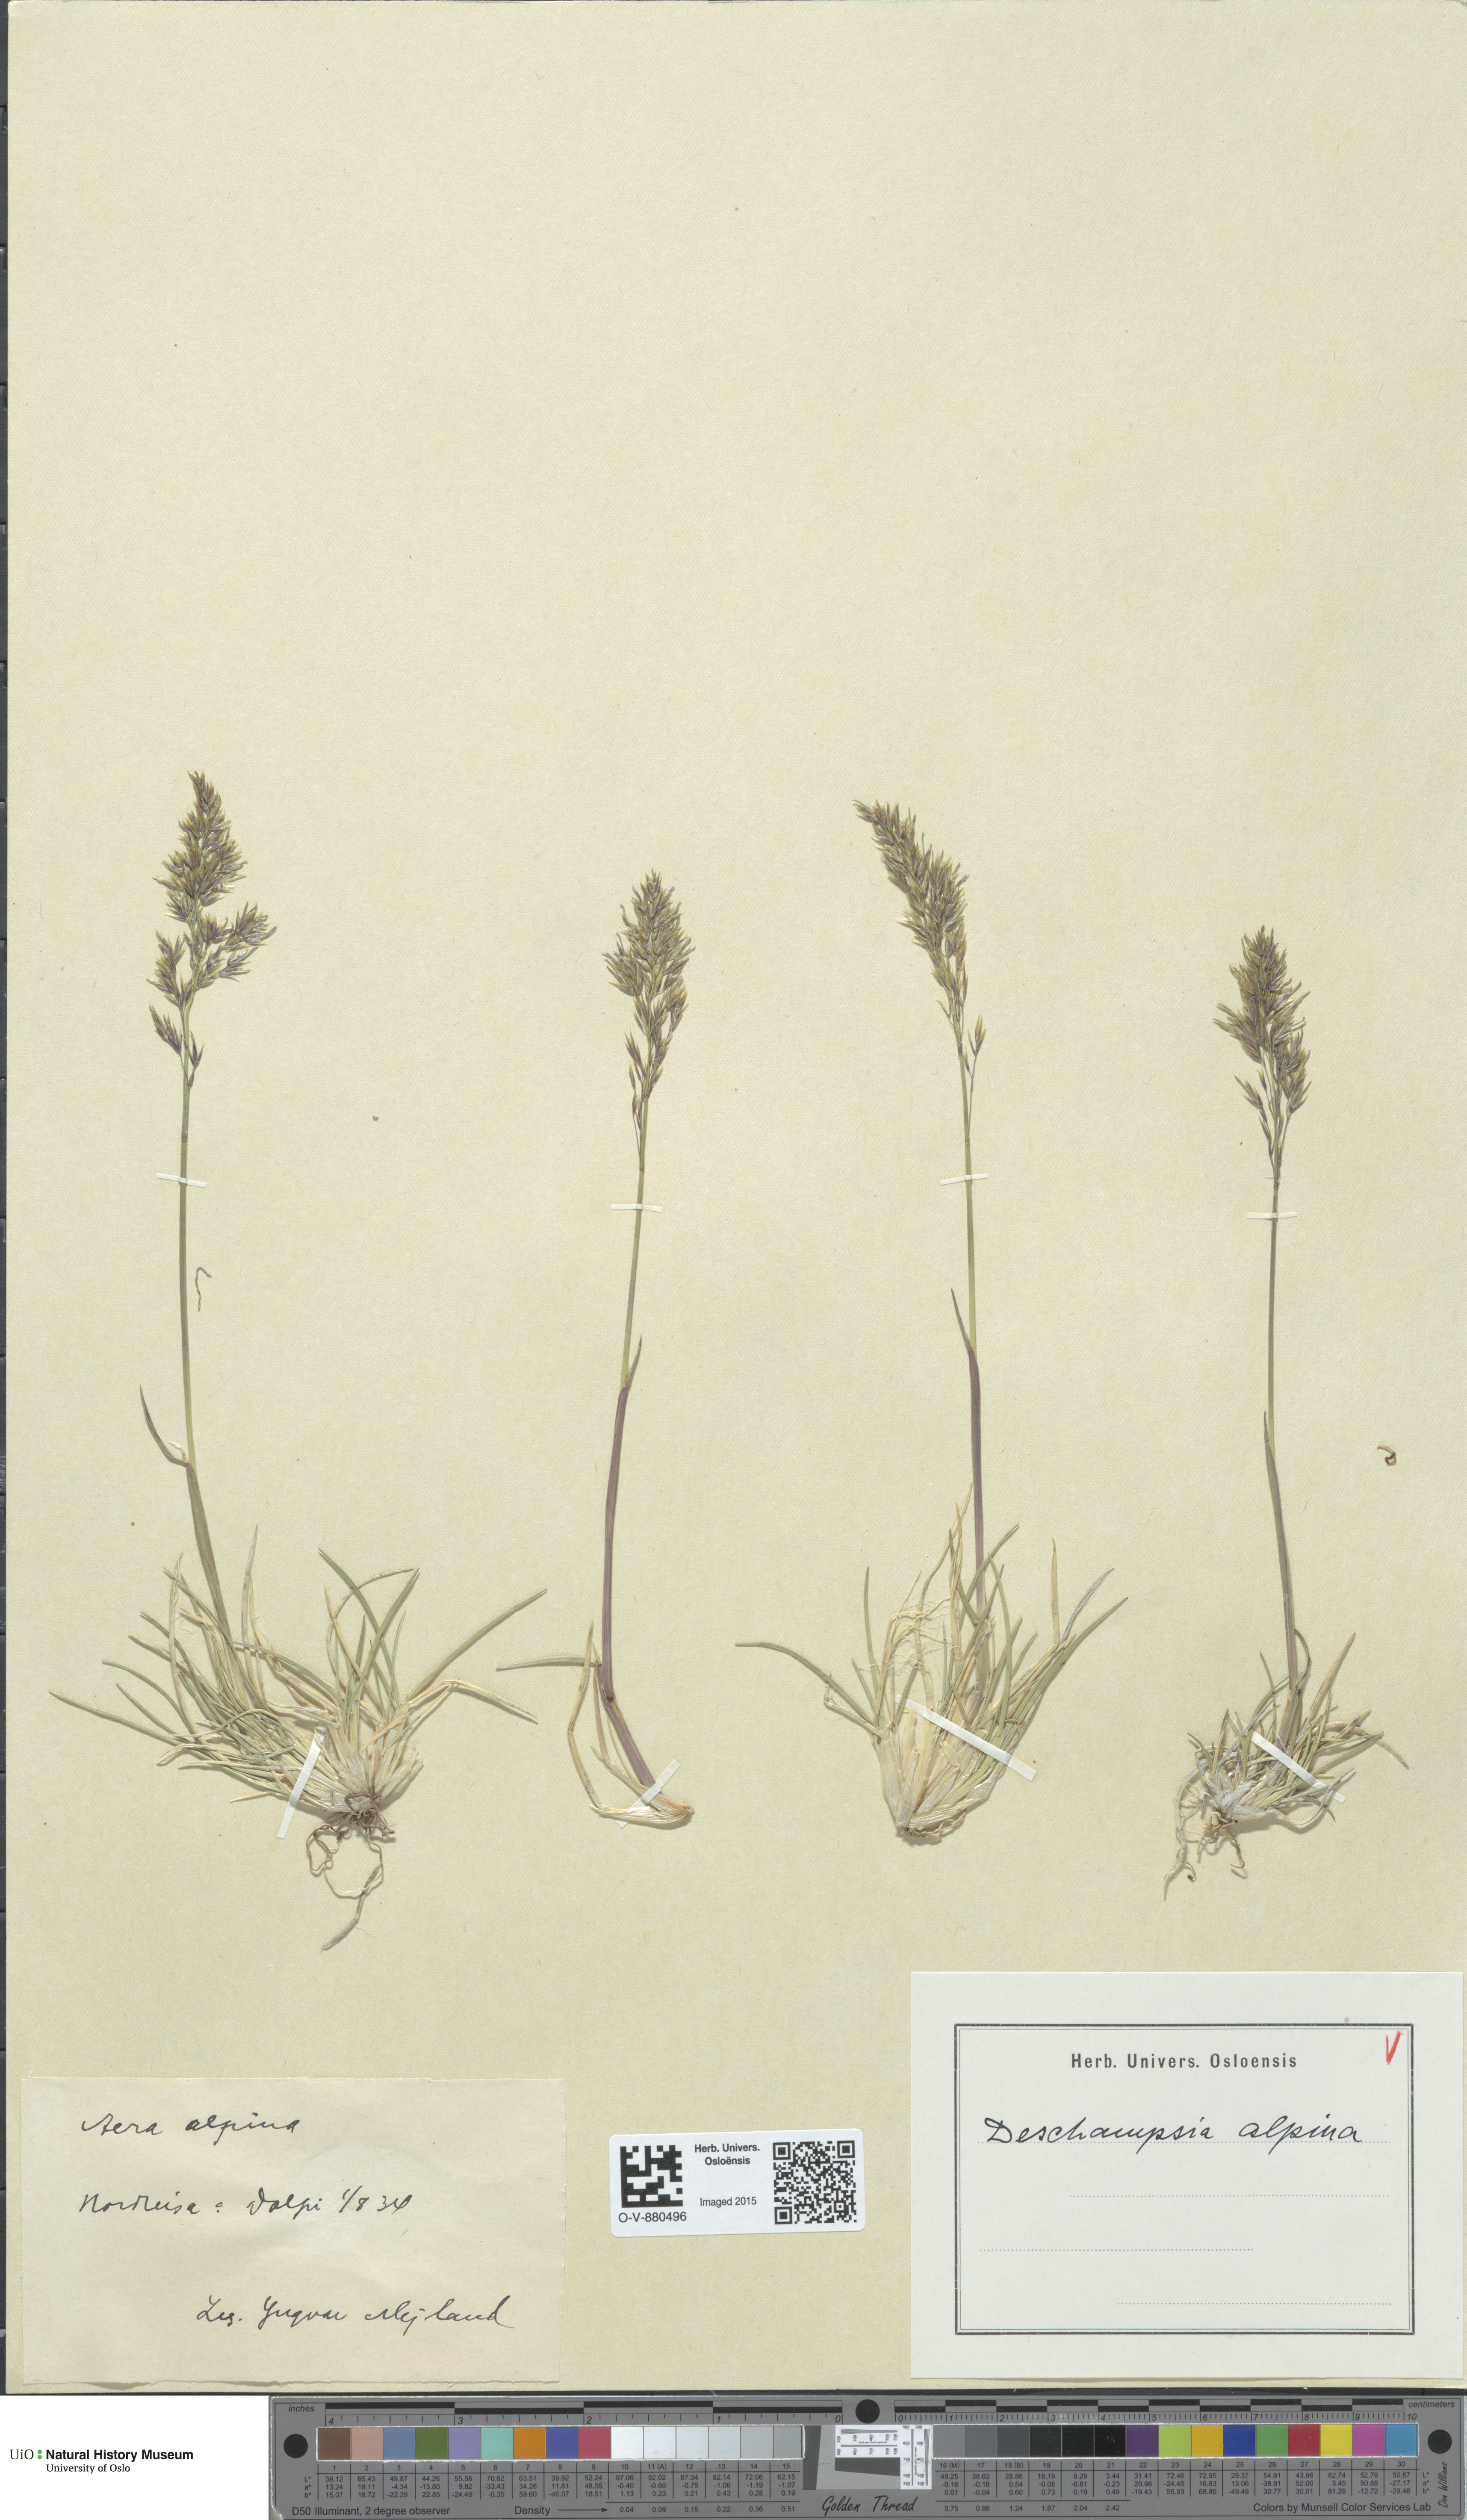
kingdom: Plantae
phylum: Tracheophyta
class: Liliopsida
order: Poales
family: Poaceae
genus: Deschampsia
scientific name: Deschampsia cespitosa
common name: Tufted hair-grass
